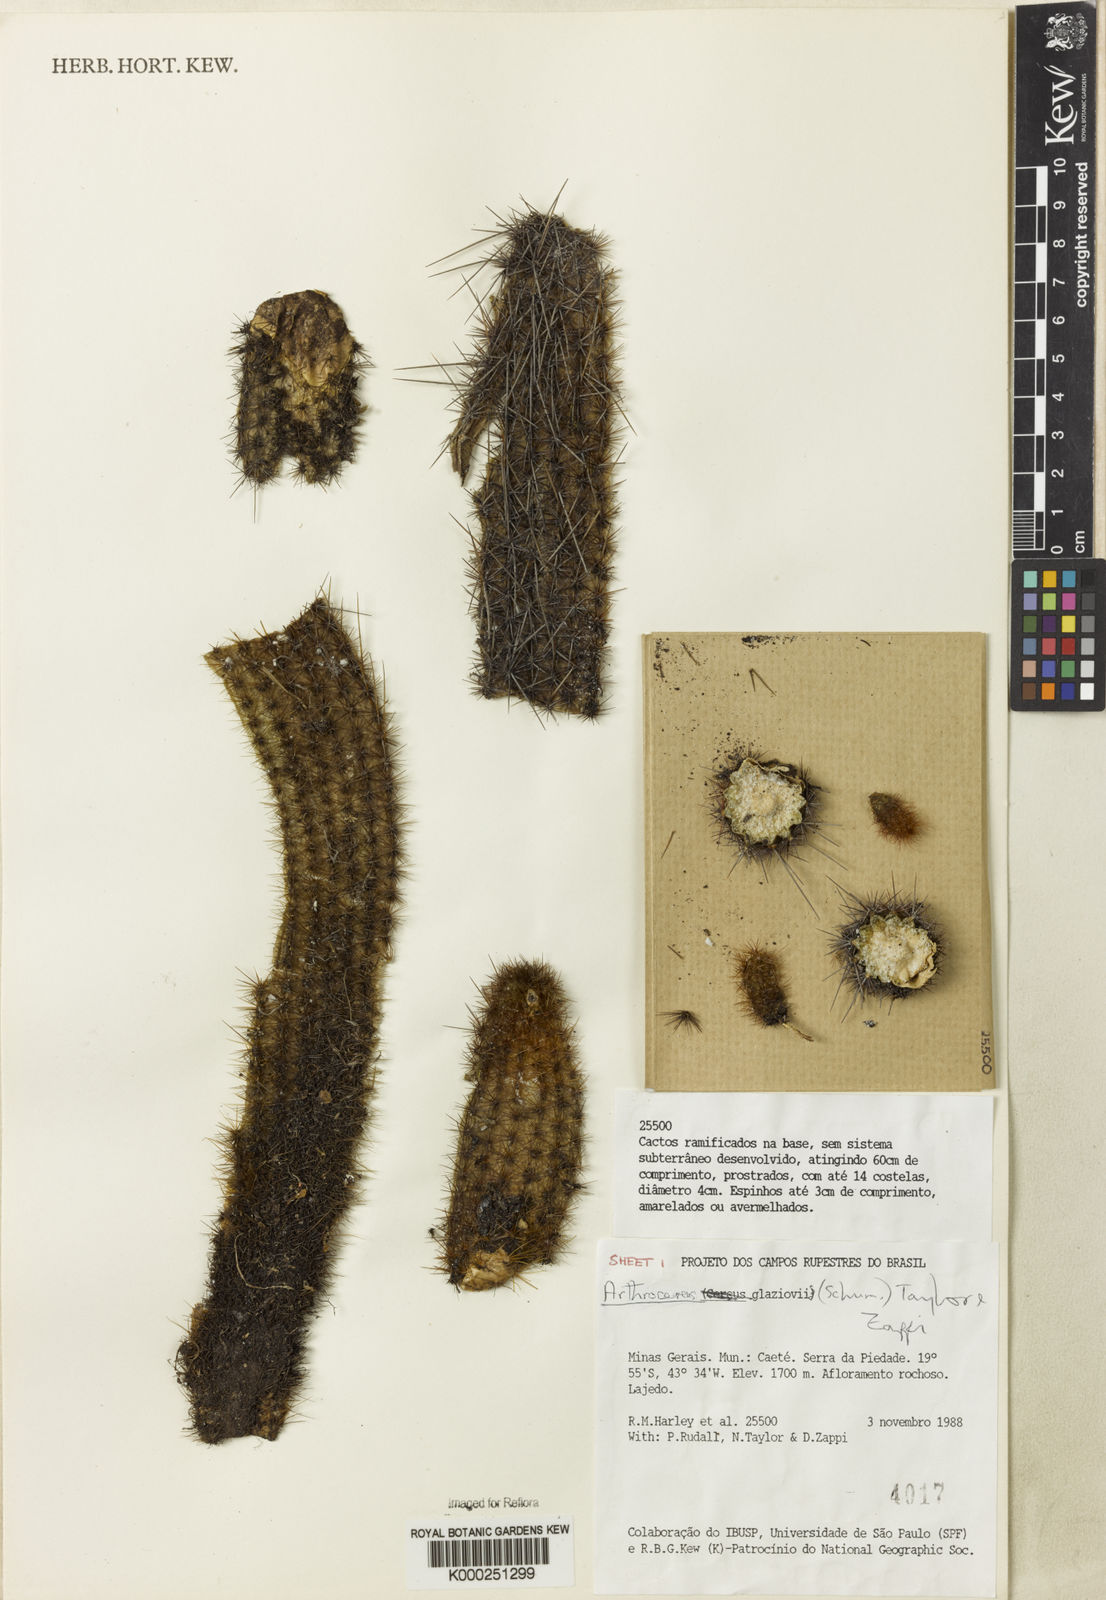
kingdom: Plantae
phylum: Tracheophyta
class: Magnoliopsida
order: Caryophyllales
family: Cactaceae
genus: Arthrocereus
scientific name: Arthrocereus glaziovii
